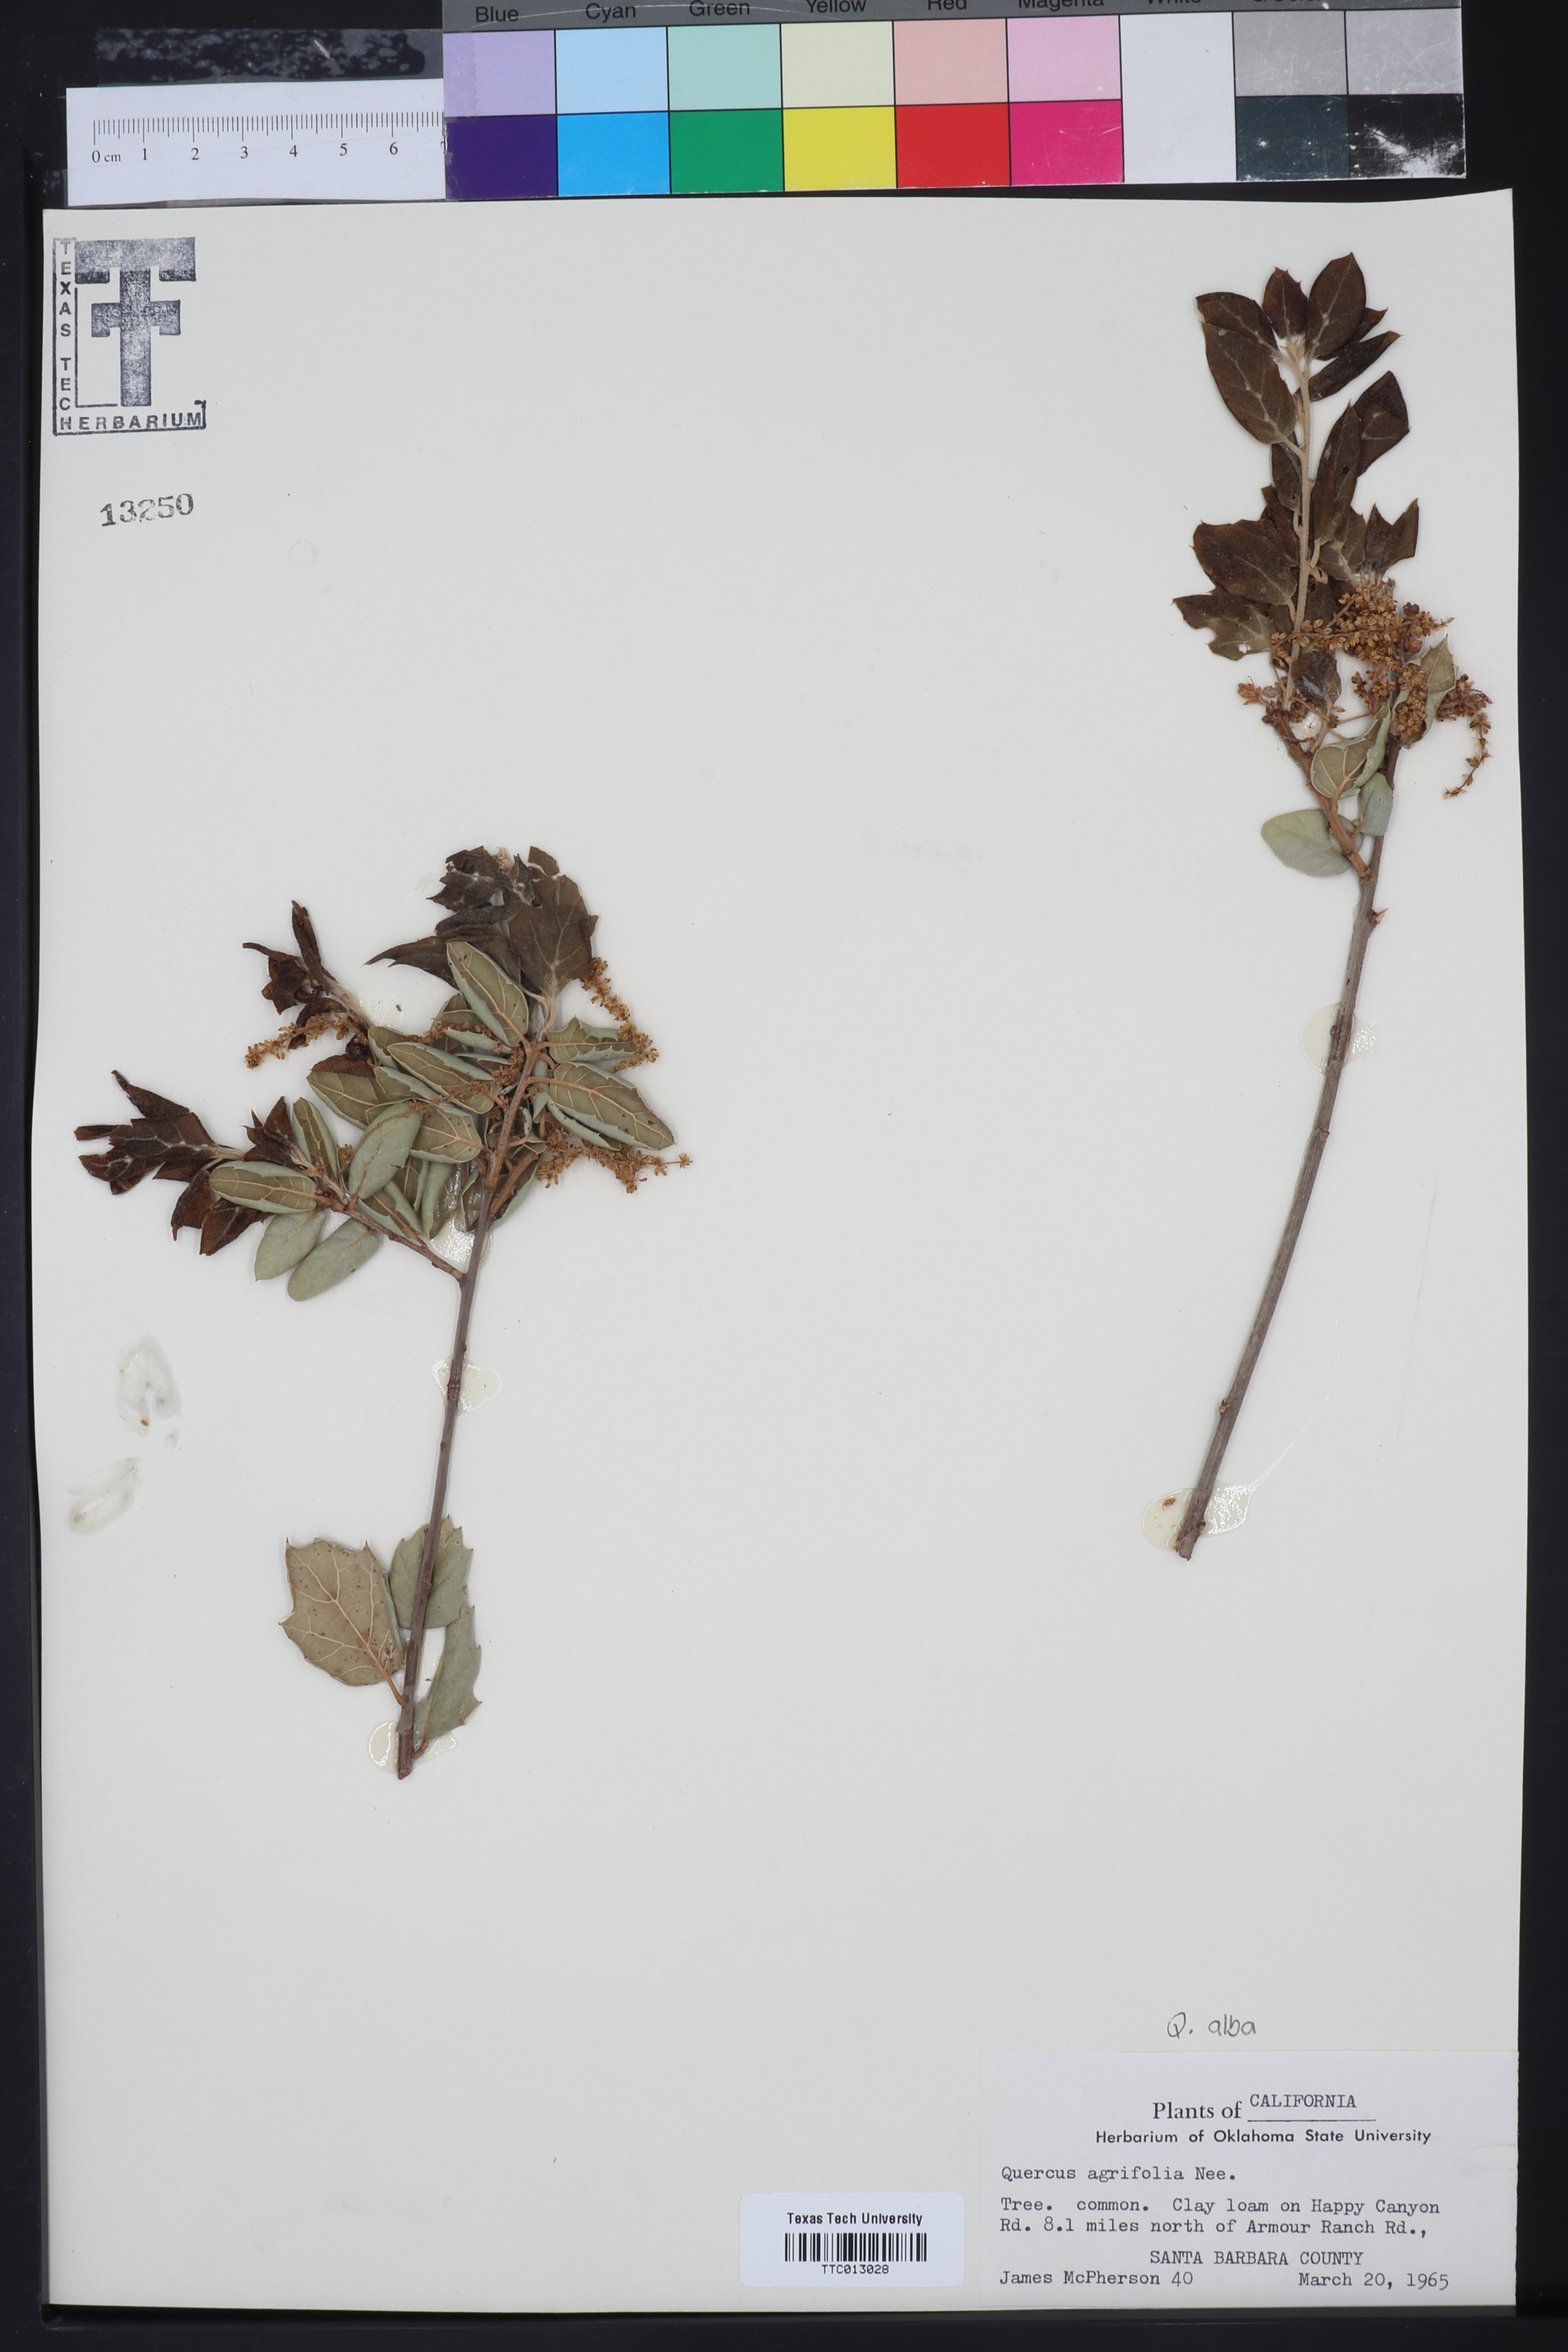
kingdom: Plantae
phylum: Tracheophyta
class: Magnoliopsida
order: Fagales
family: Fagaceae
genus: Quercus
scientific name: Quercus agrifolia
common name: California live oak
